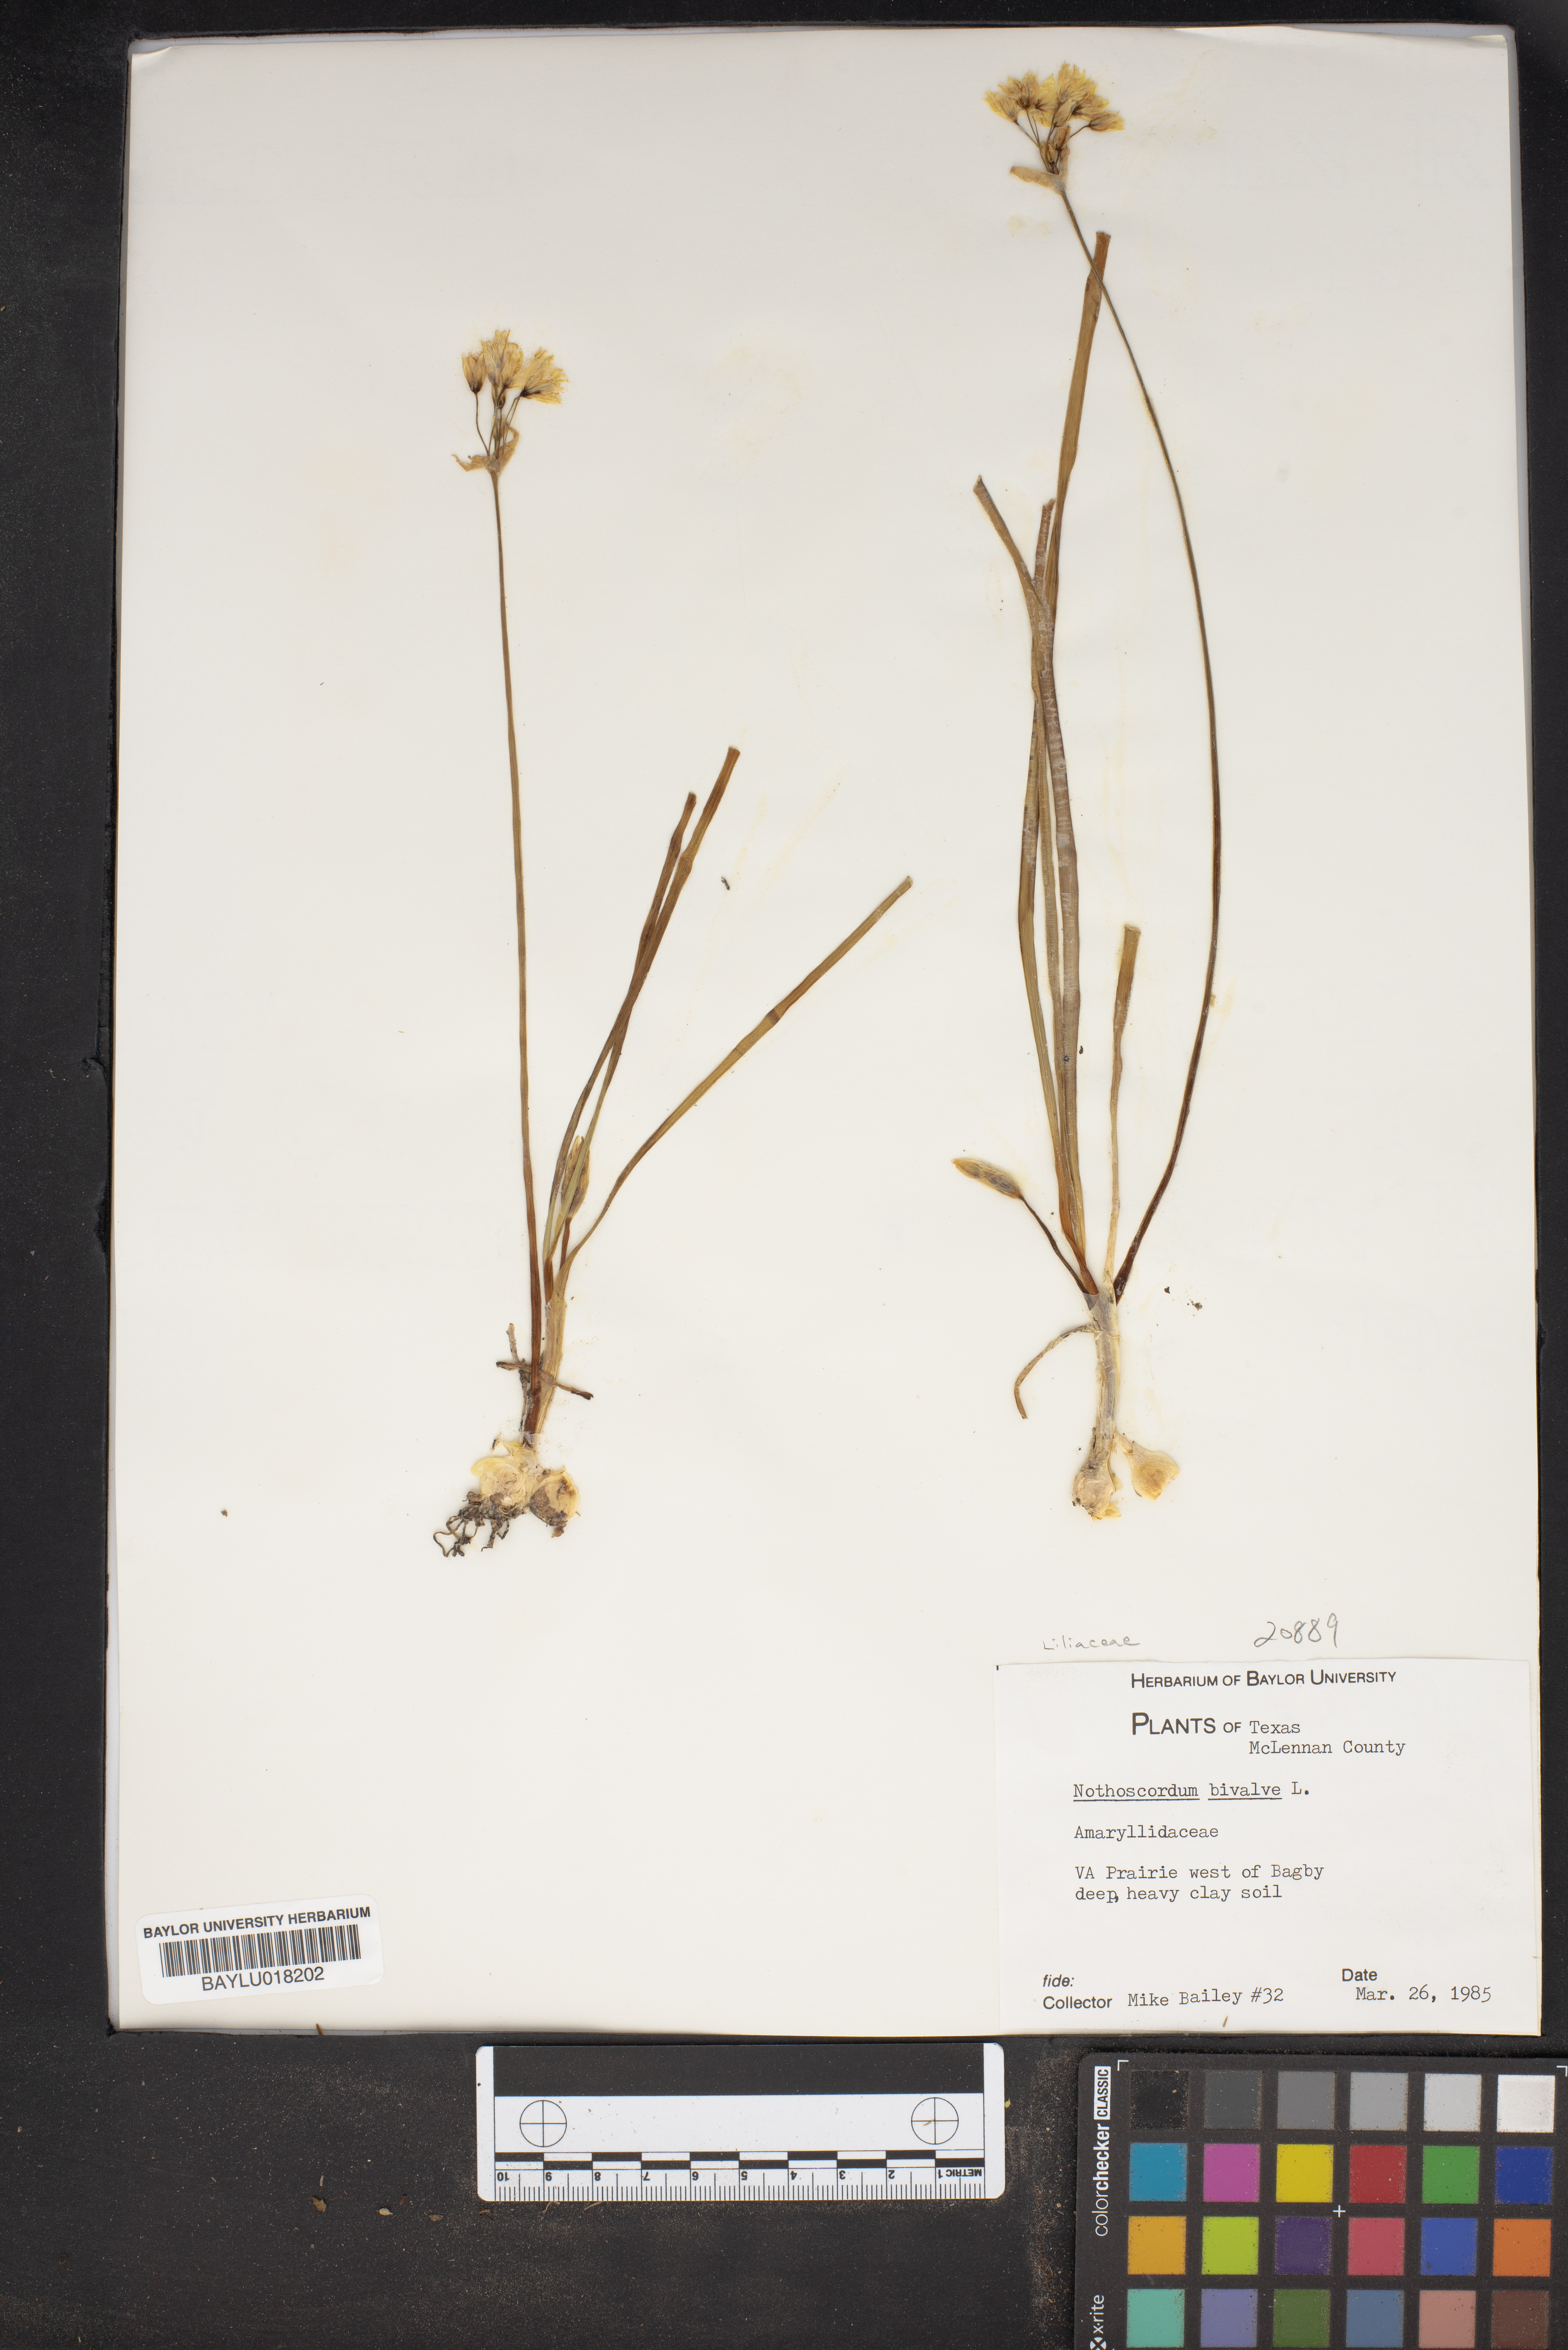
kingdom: Plantae
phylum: Tracheophyta
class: Liliopsida
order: Asparagales
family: Amaryllidaceae
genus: Nothoscordum
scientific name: Nothoscordum bivalve
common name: Crow-poison
